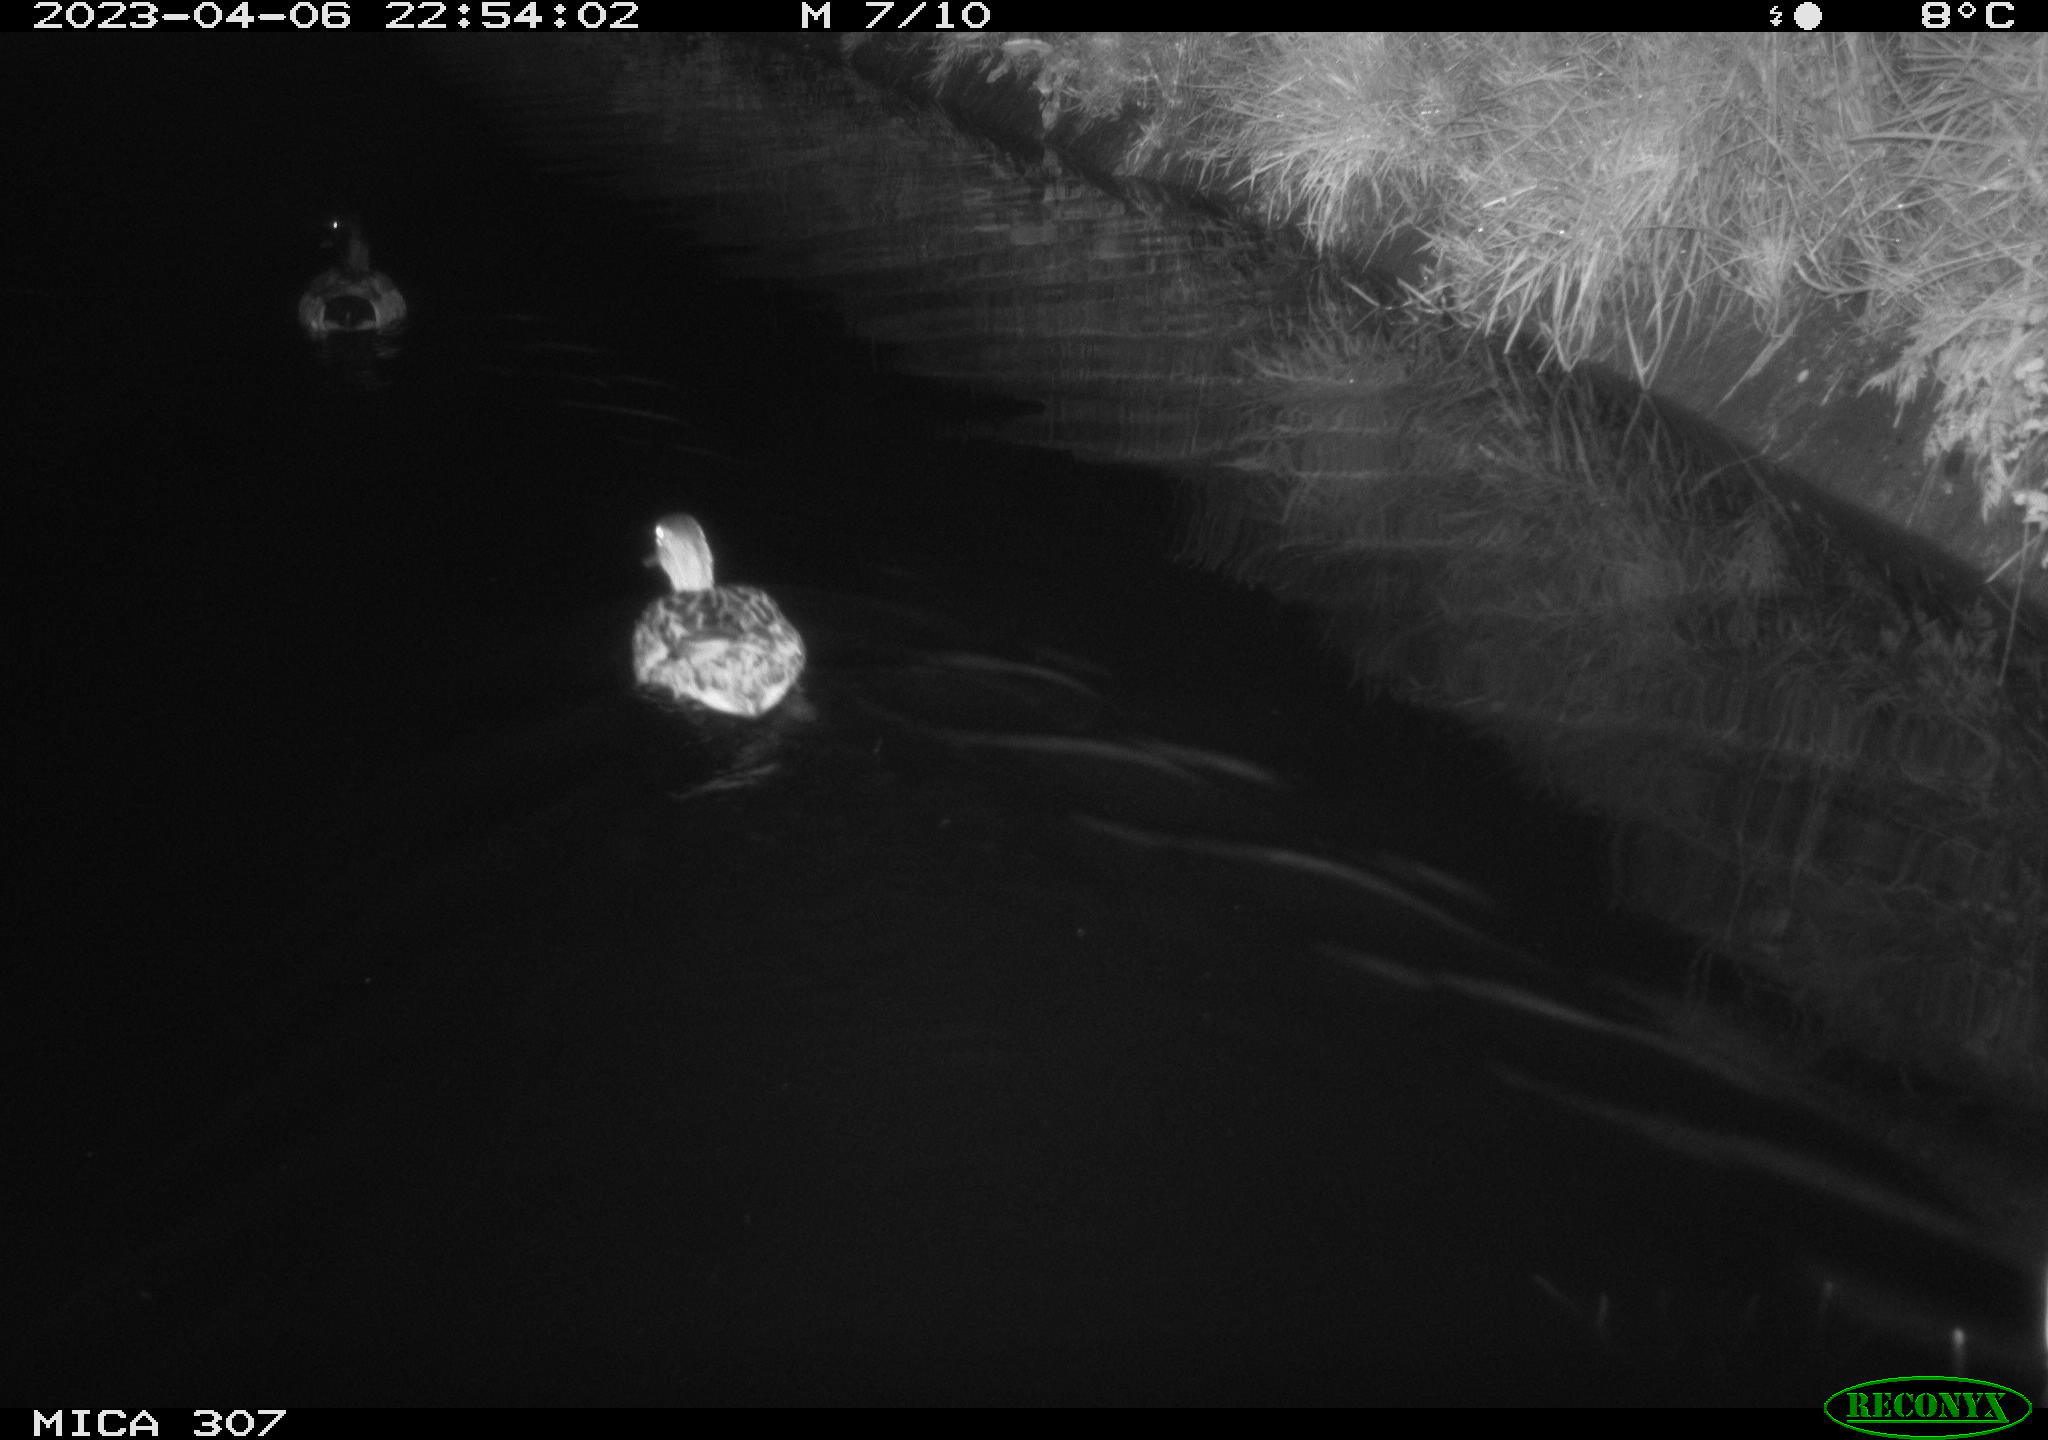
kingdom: Animalia
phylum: Chordata
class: Aves
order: Anseriformes
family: Anatidae
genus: Anas
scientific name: Anas
